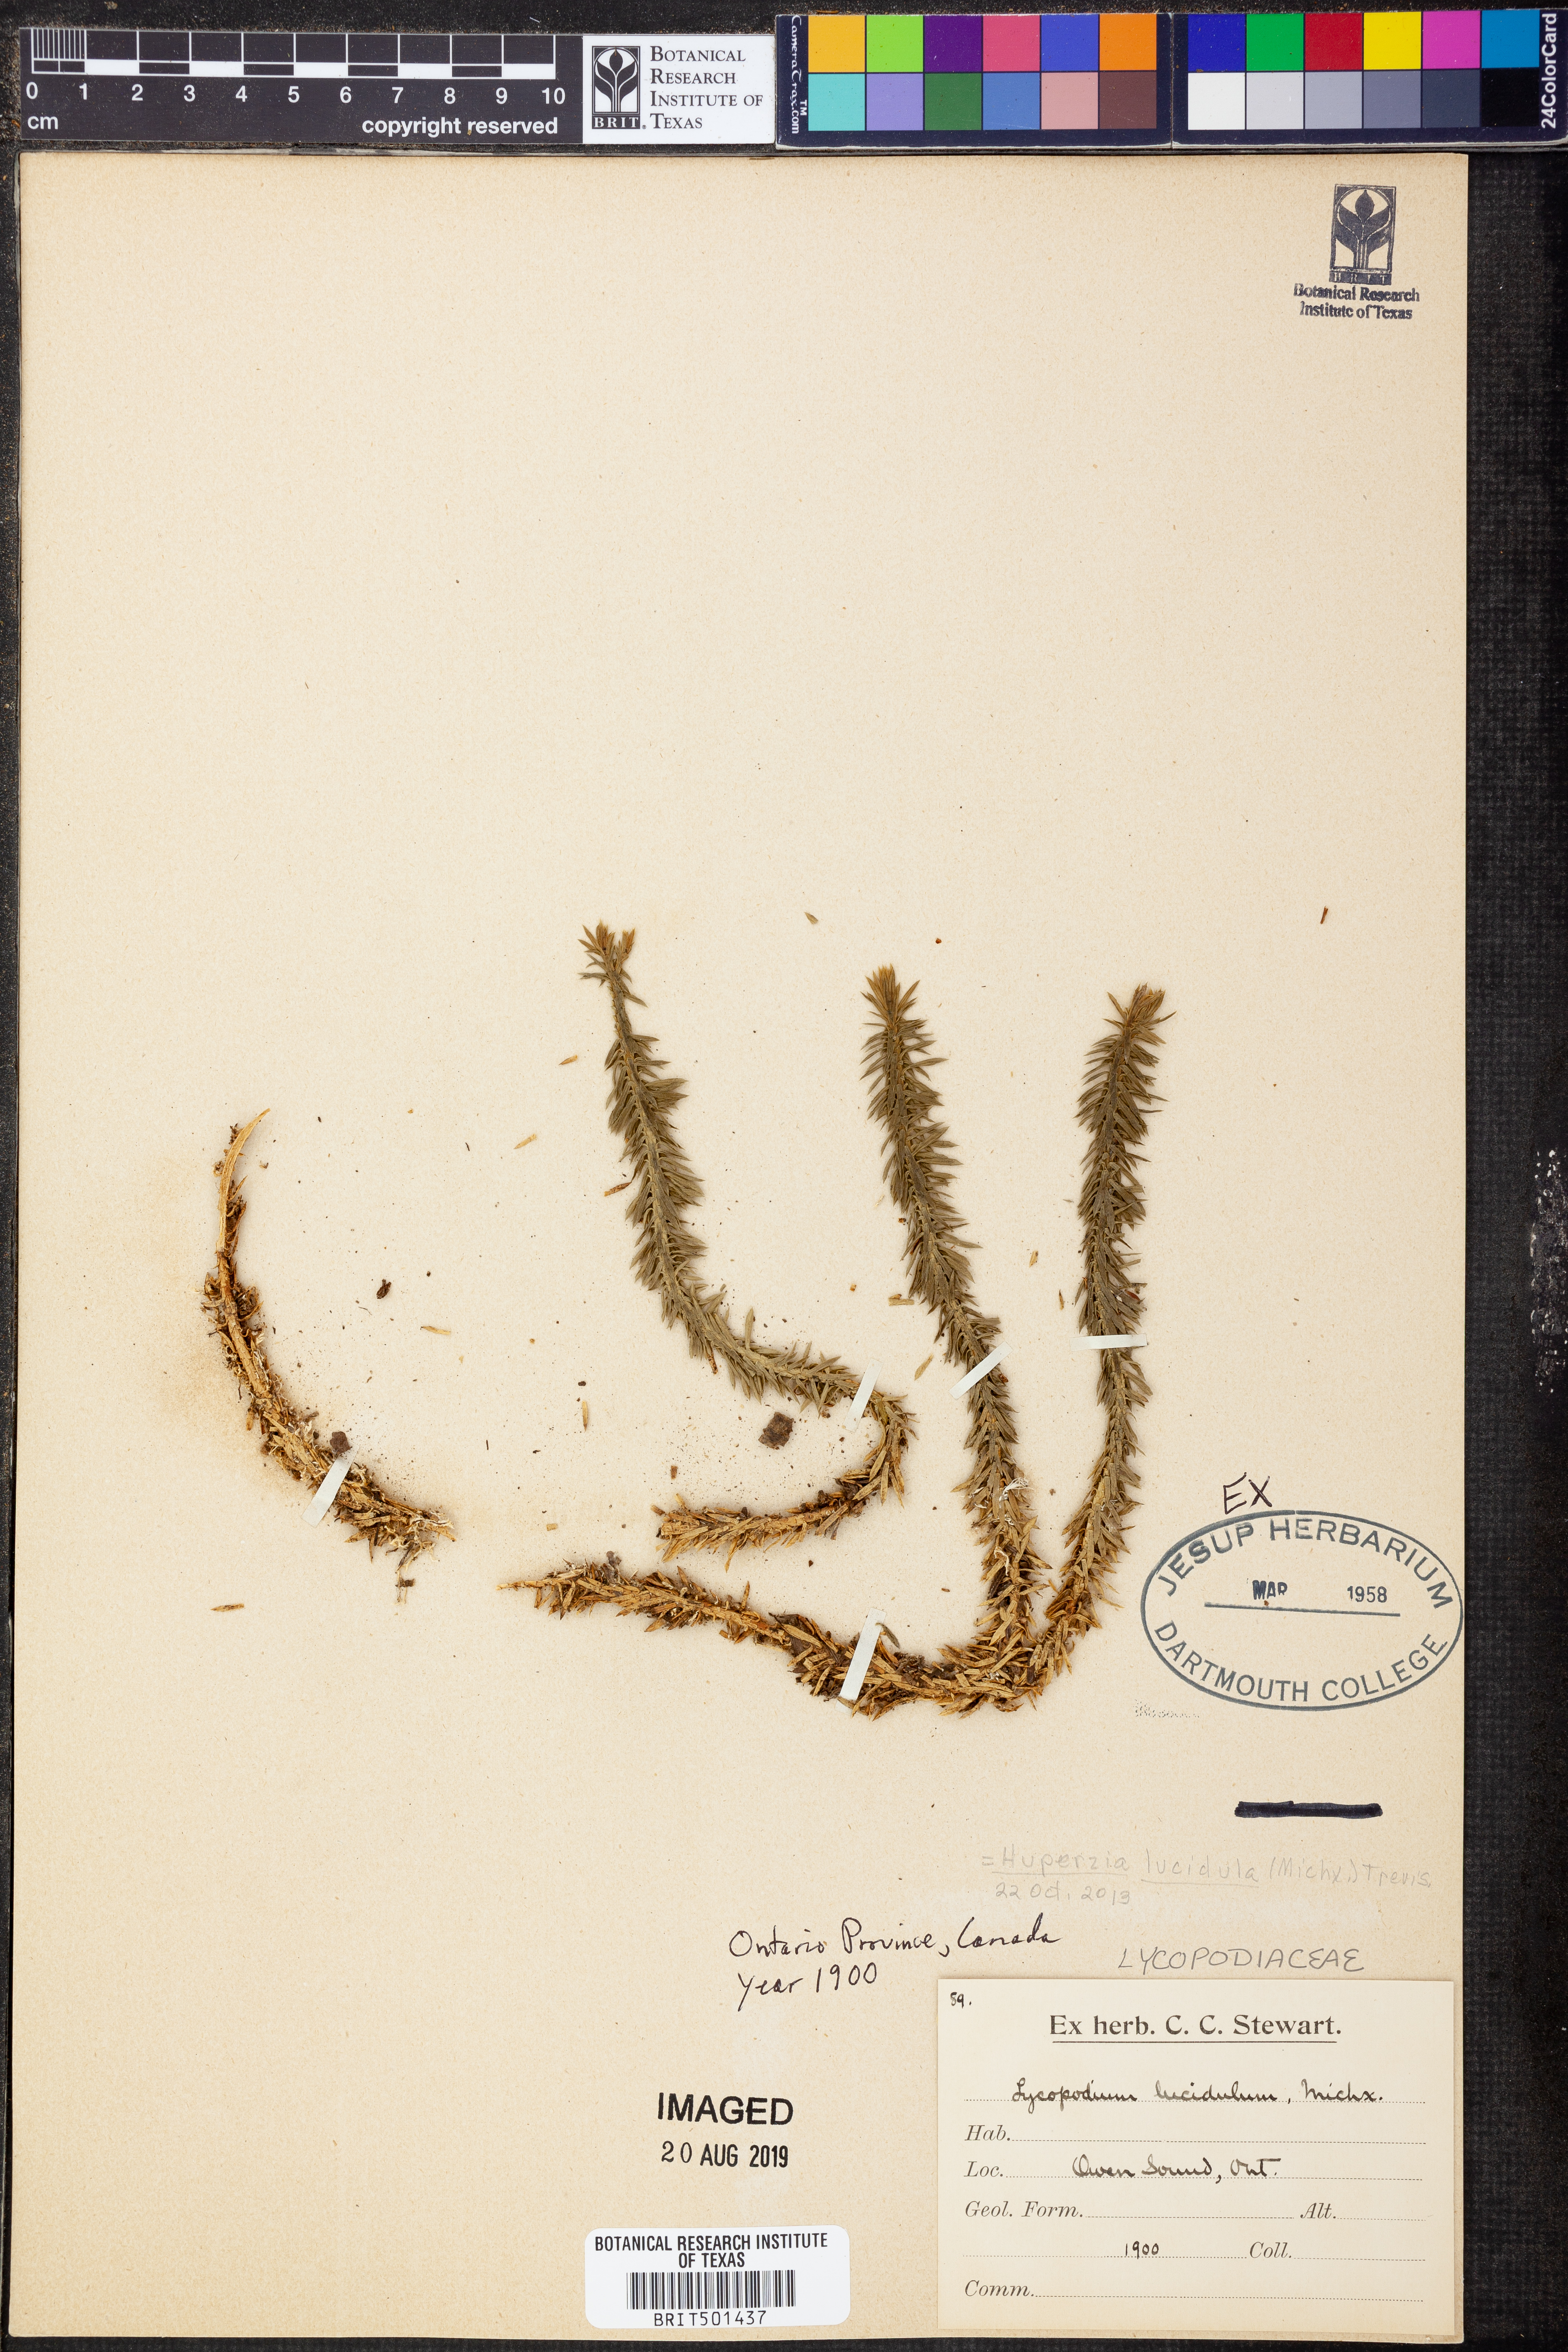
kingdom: Plantae
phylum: Tracheophyta
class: Lycopodiopsida
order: Lycopodiales
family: Lycopodiaceae
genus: Huperzia
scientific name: Huperzia lucidula
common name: Shining clubmoss
